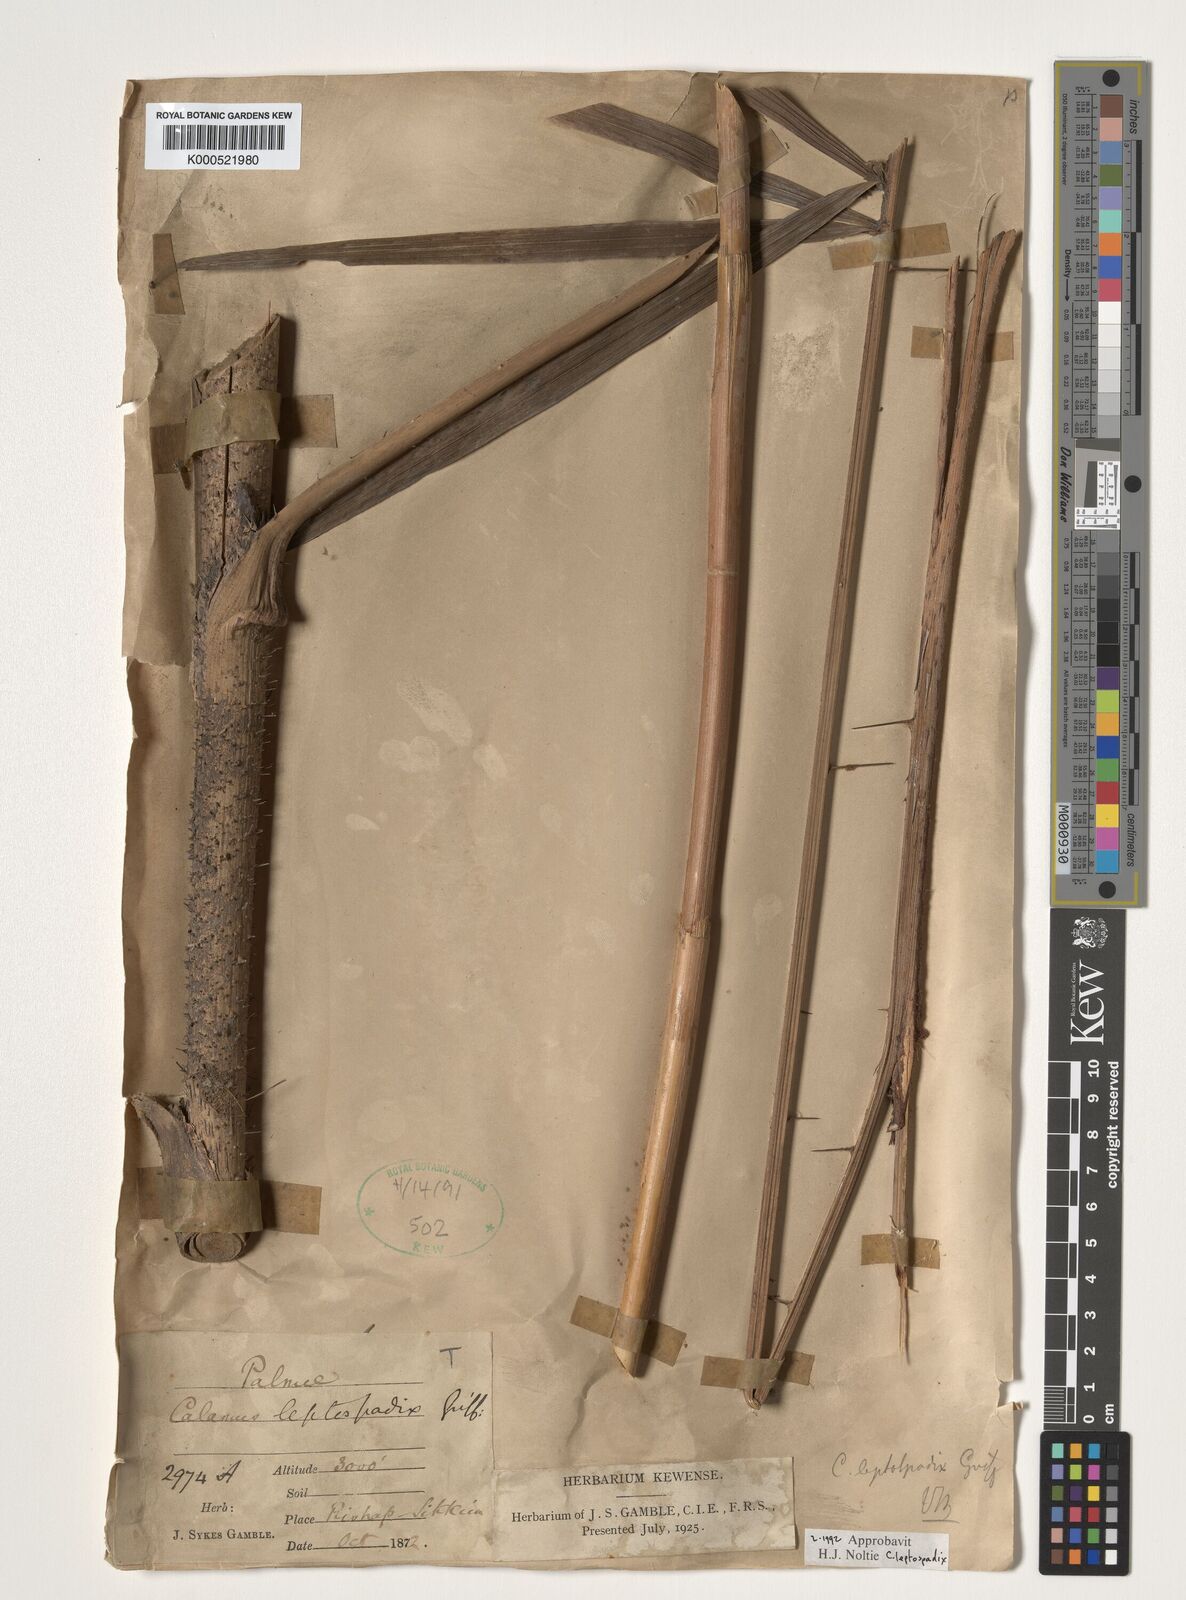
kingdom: Plantae
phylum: Tracheophyta
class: Liliopsida
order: Arecales
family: Arecaceae
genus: Calamus
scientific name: Calamus leptospadix
